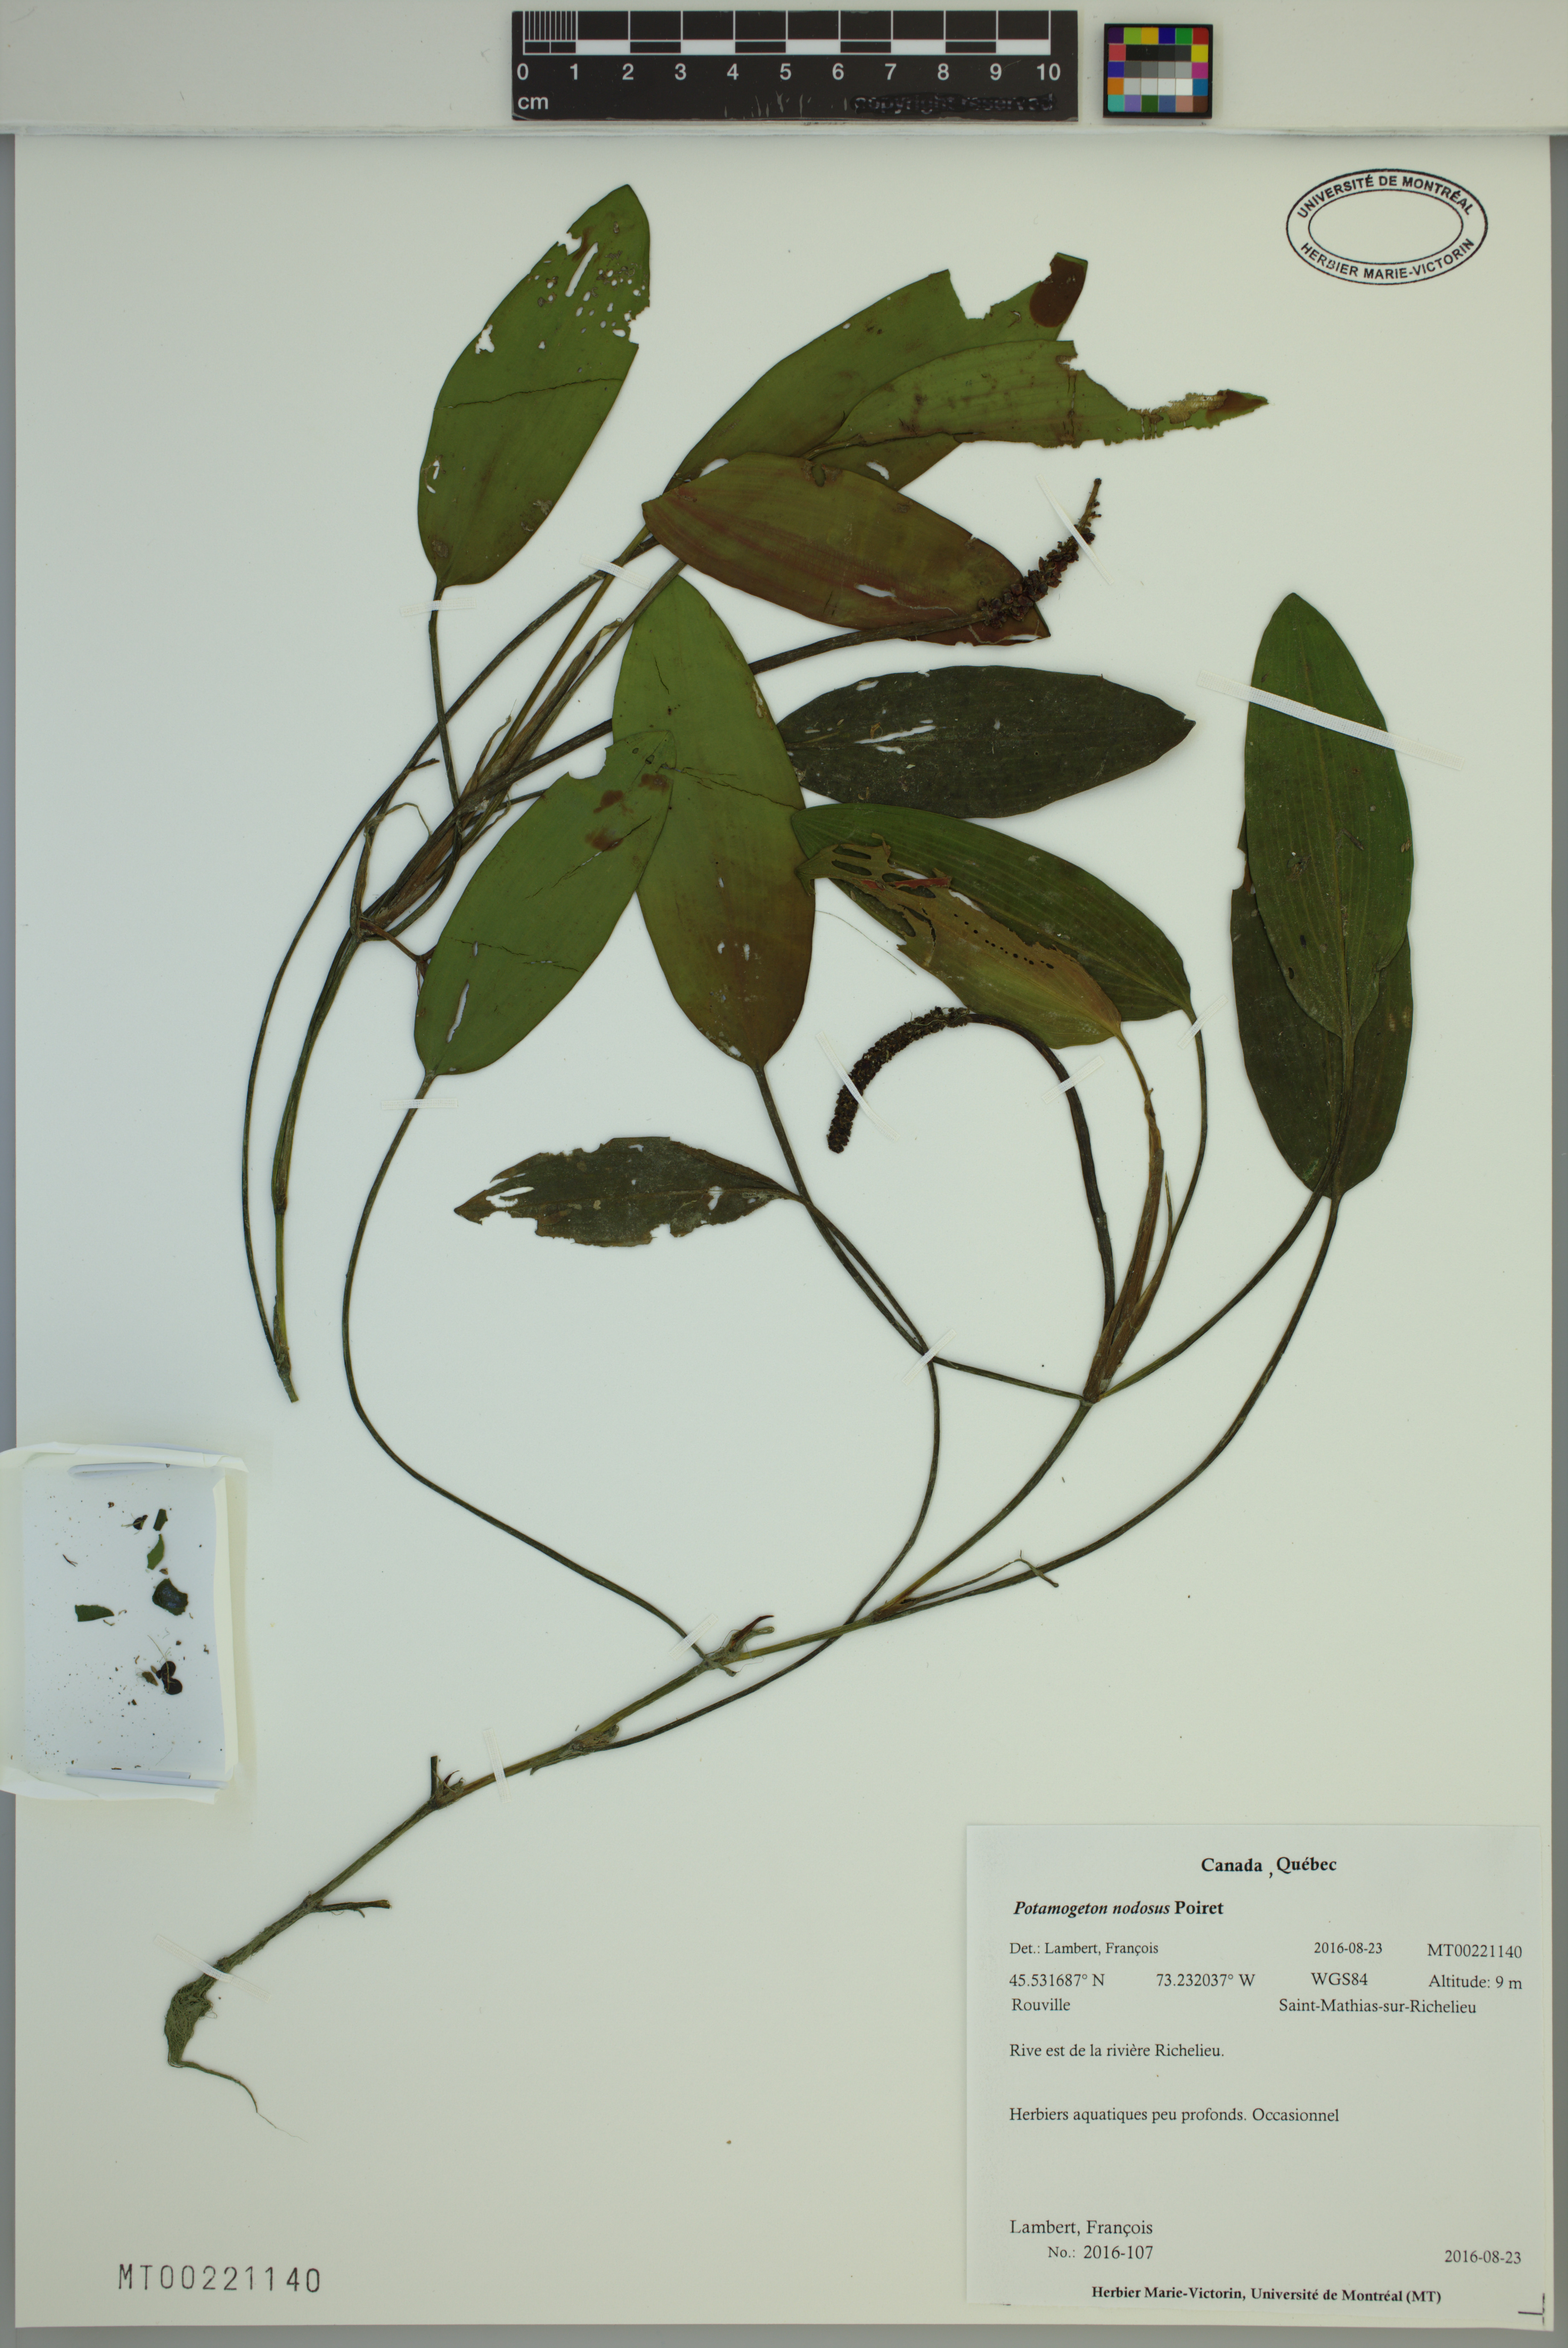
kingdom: Plantae
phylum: Tracheophyta
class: Liliopsida
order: Alismatales
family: Potamogetonaceae
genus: Potamogeton
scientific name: Potamogeton nodosus
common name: Loddon pondweed
